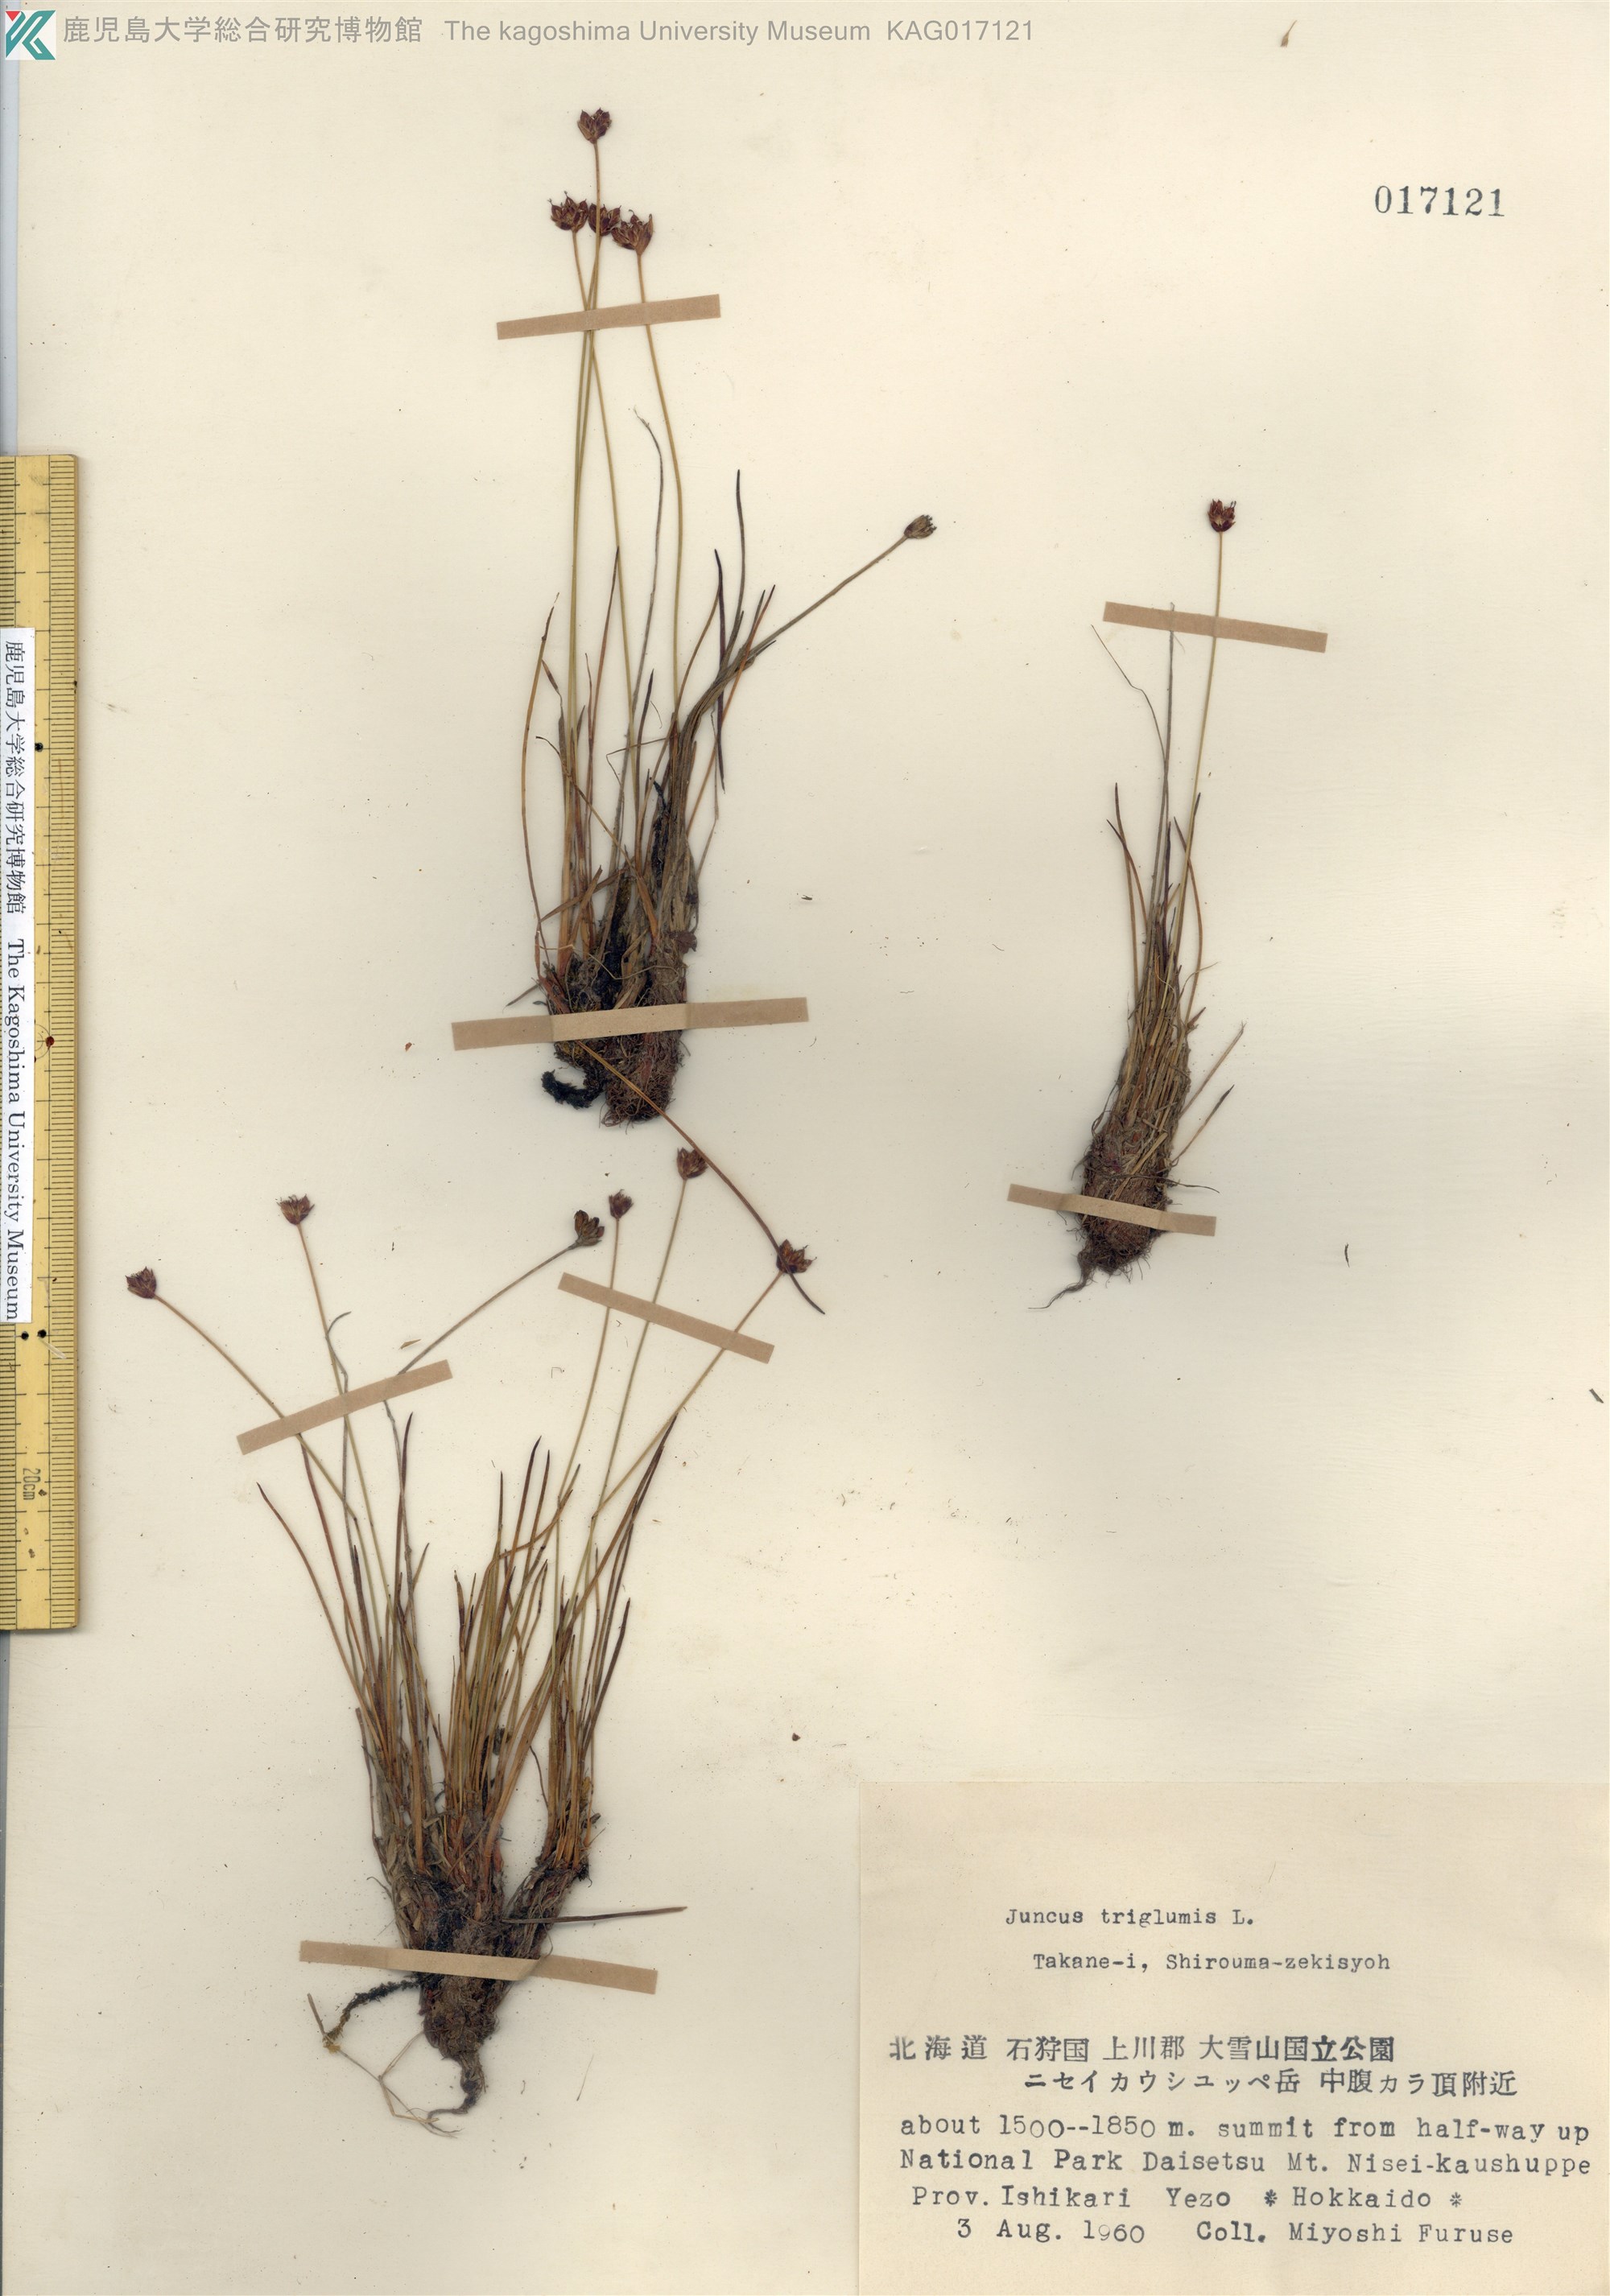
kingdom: Plantae
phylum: Tracheophyta
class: Liliopsida
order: Poales
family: Juncaceae
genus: Juncus
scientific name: Juncus triglumis
